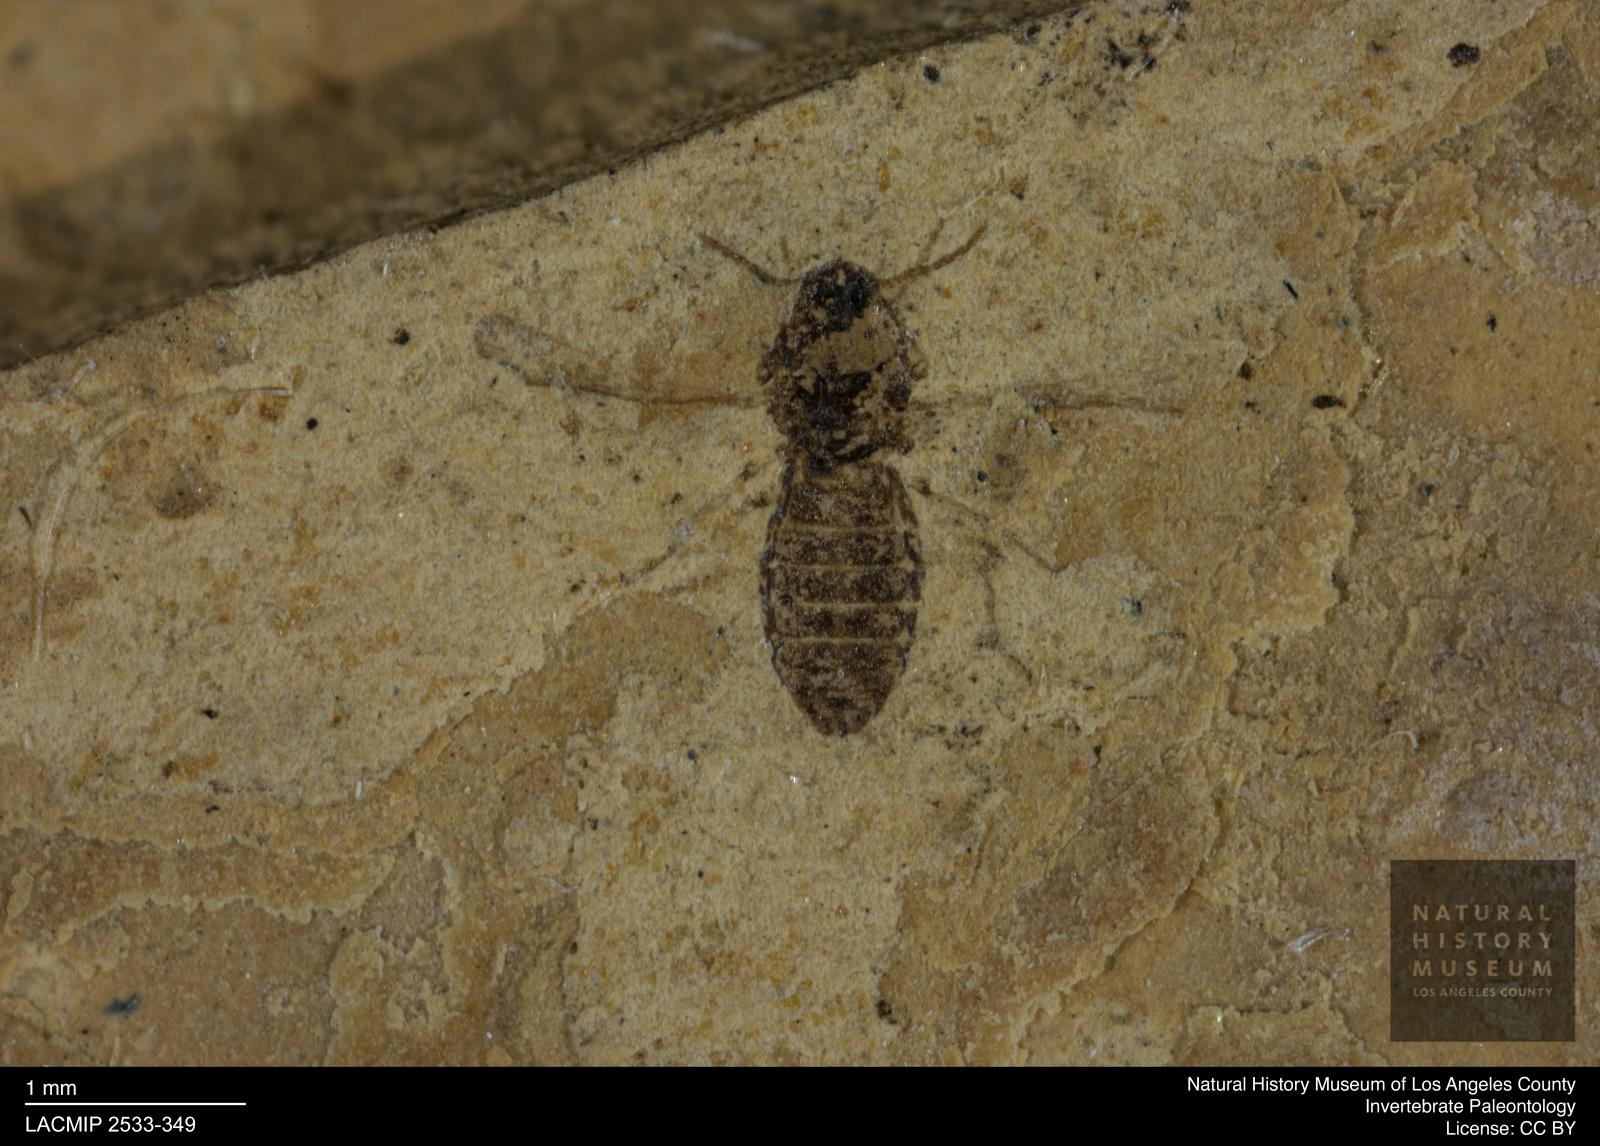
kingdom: Animalia
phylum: Arthropoda
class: Insecta
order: Diptera
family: Ceratopogonidae
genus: Culicoides
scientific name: Culicoides austerus
